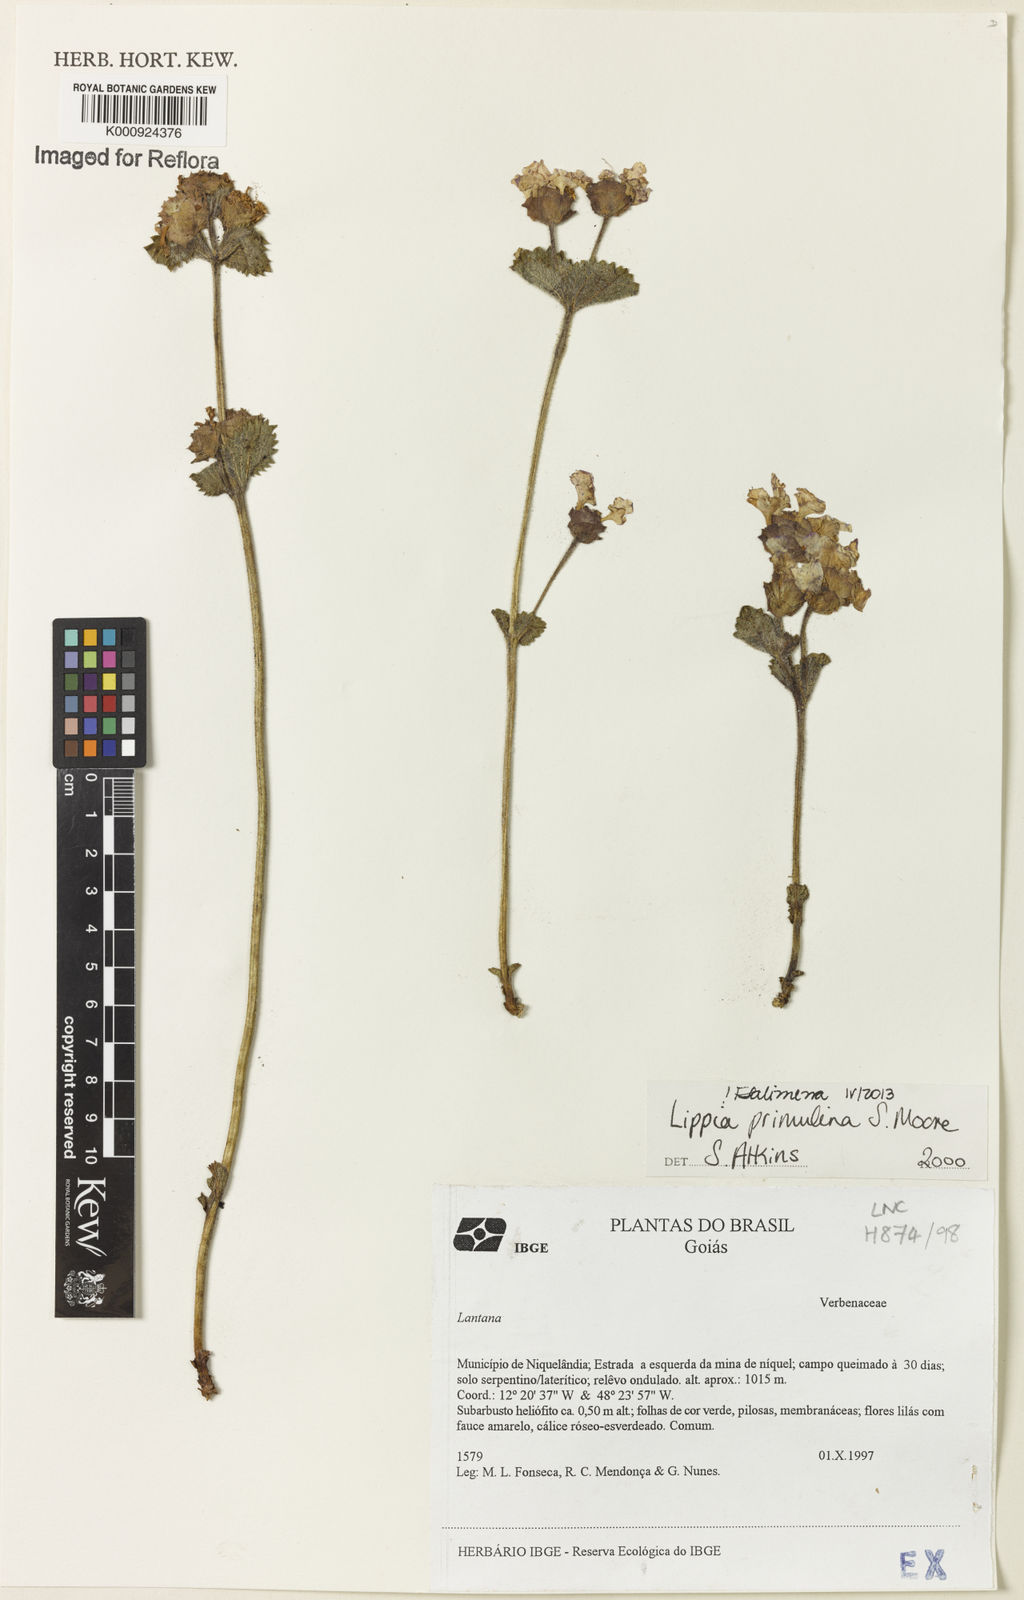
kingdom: Plantae
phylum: Tracheophyta
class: Magnoliopsida
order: Lamiales
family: Verbenaceae
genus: Lippia
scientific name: Lippia primulina
